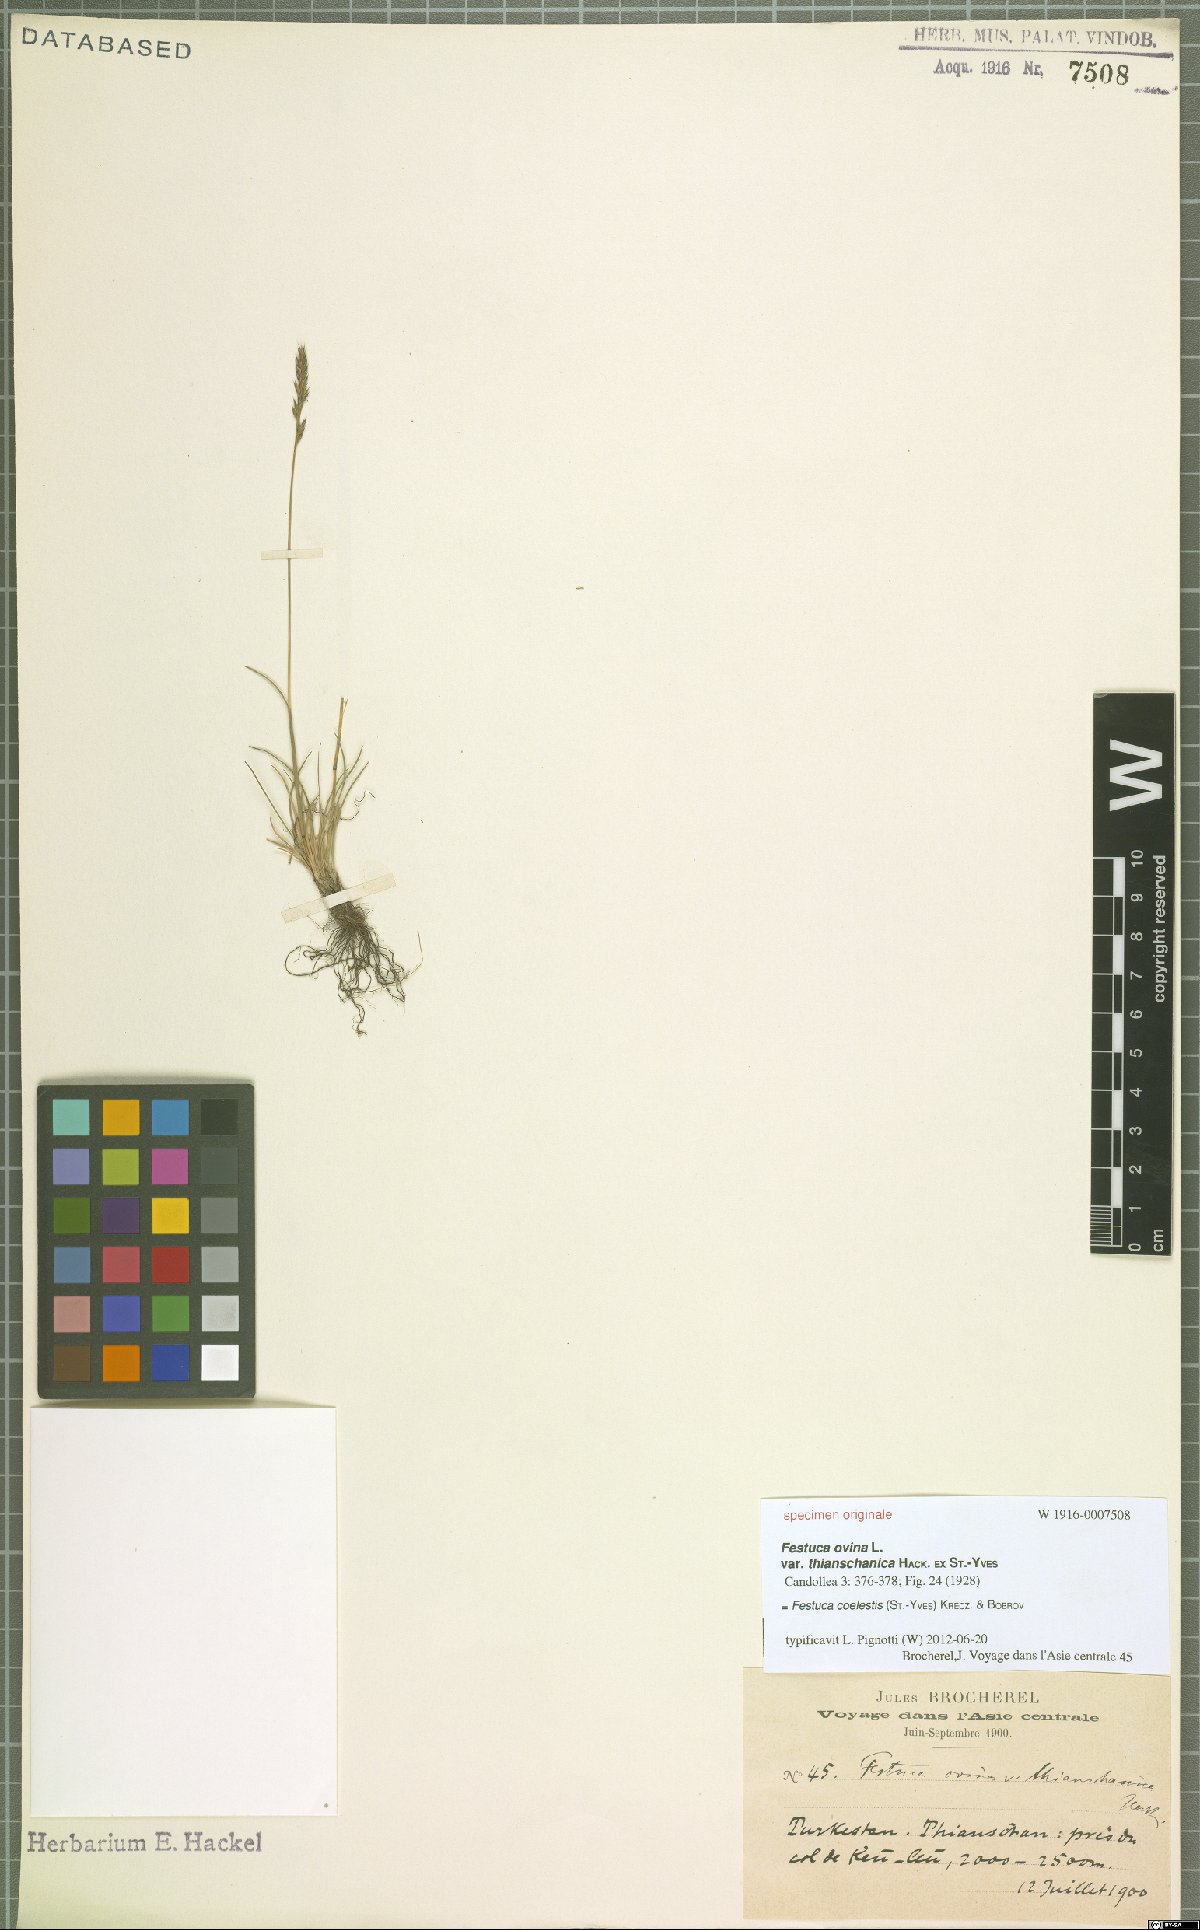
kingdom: Plantae
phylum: Tracheophyta
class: Liliopsida
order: Poales
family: Poaceae
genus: Festuca
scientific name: Festuca coelestis
